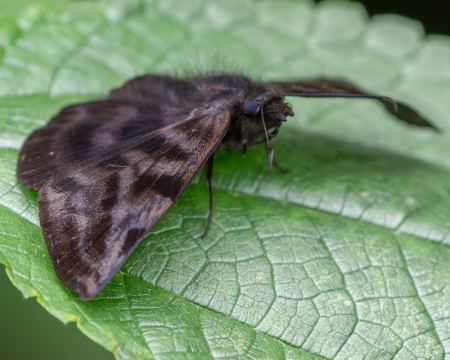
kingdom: Animalia
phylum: Arthropoda
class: Insecta
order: Lepidoptera
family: Hesperiidae
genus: Ebrietas
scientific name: Ebrietas anacreon
